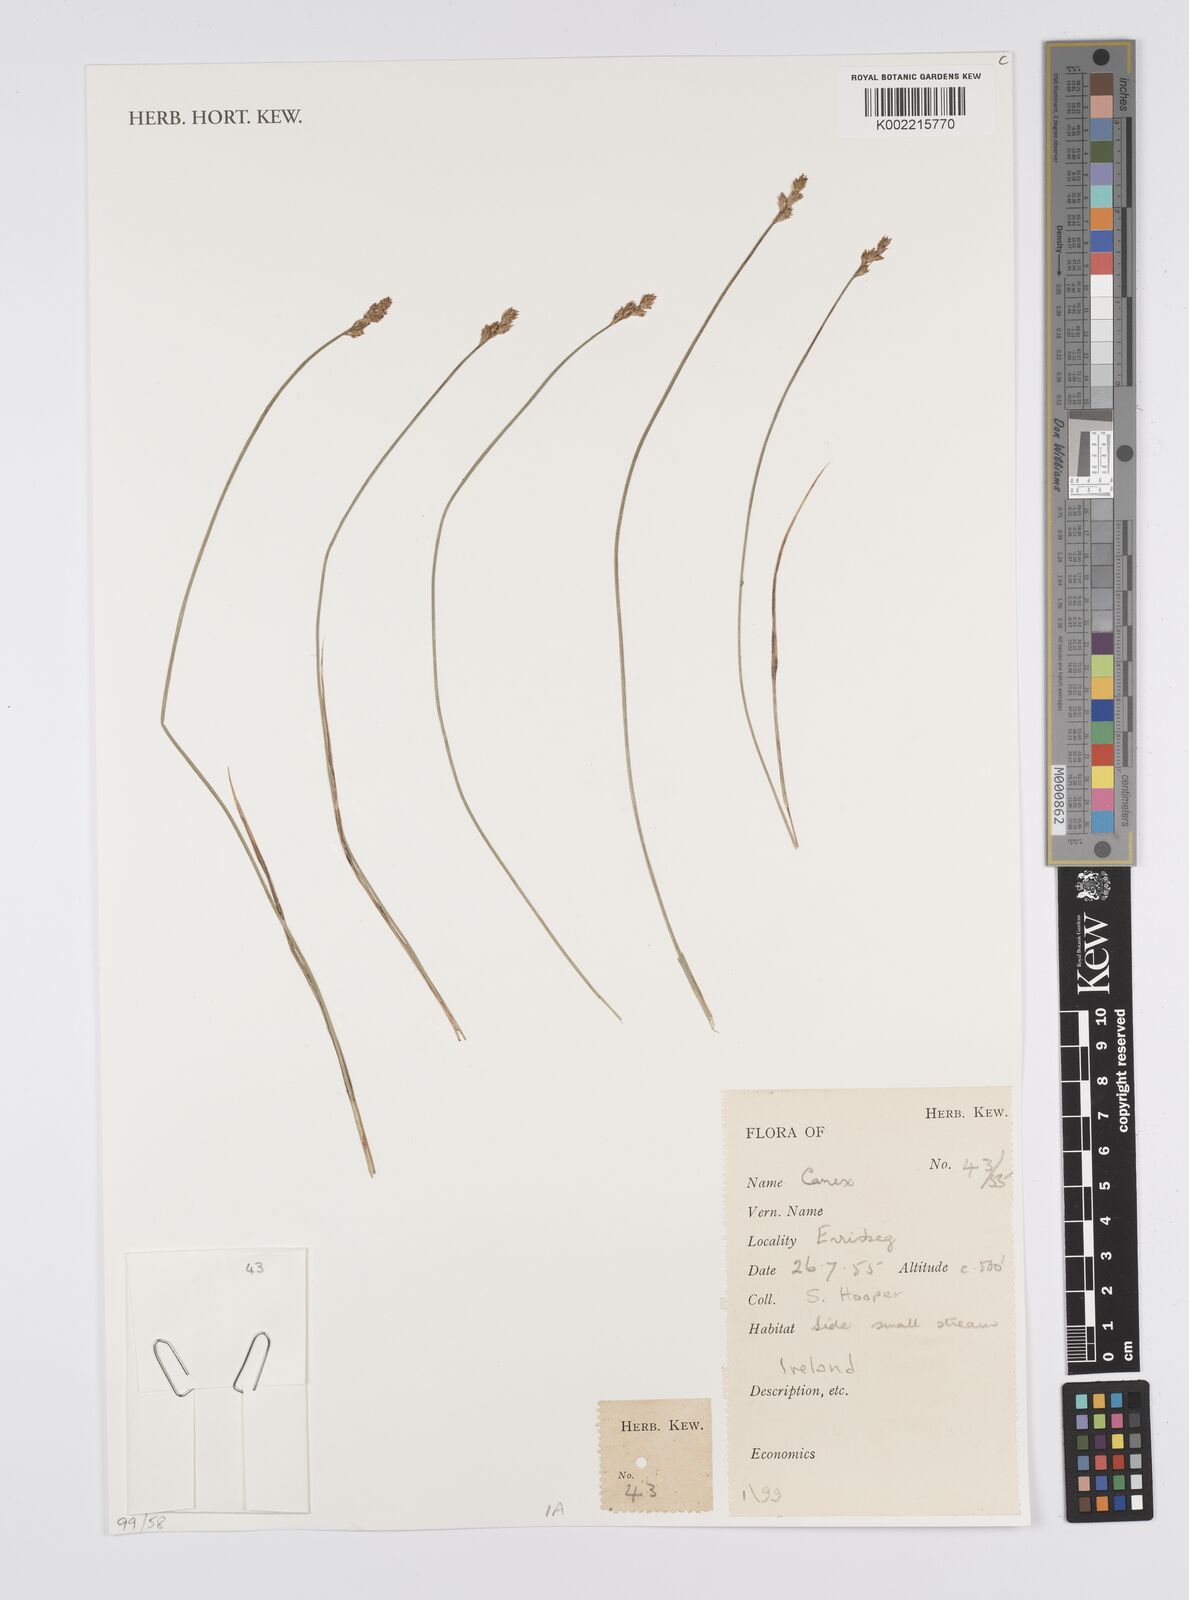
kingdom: Plantae
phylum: Tracheophyta
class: Liliopsida
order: Poales
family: Cyperaceae
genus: Carex
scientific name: Carex
